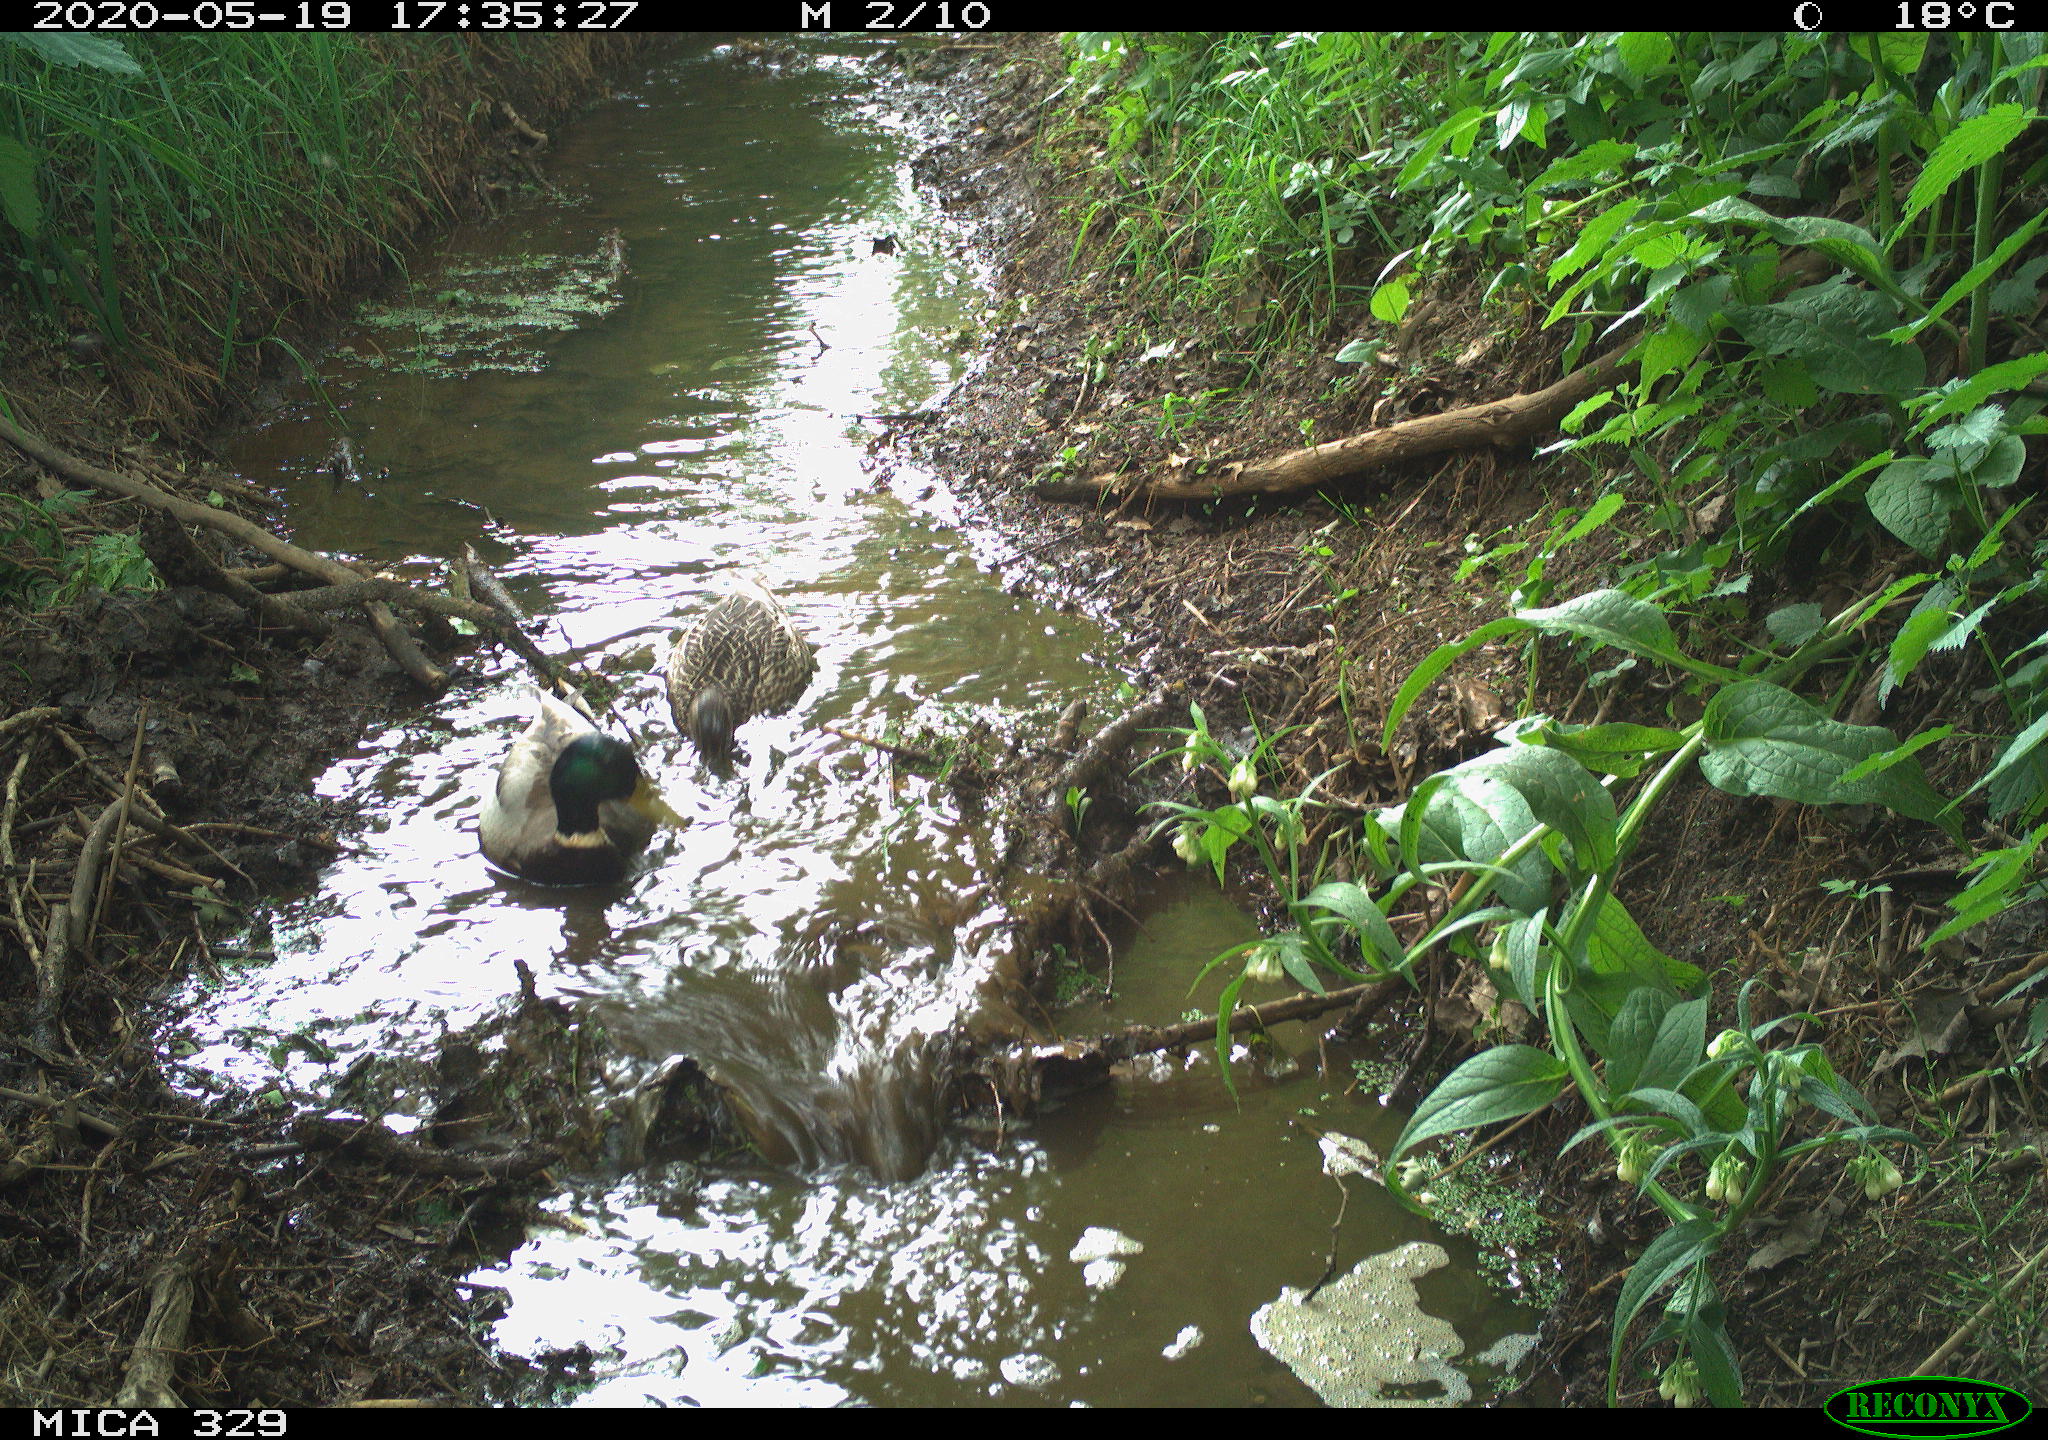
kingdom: Animalia
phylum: Chordata
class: Aves
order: Anseriformes
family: Anatidae
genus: Anas
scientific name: Anas platyrhynchos
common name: Mallard
